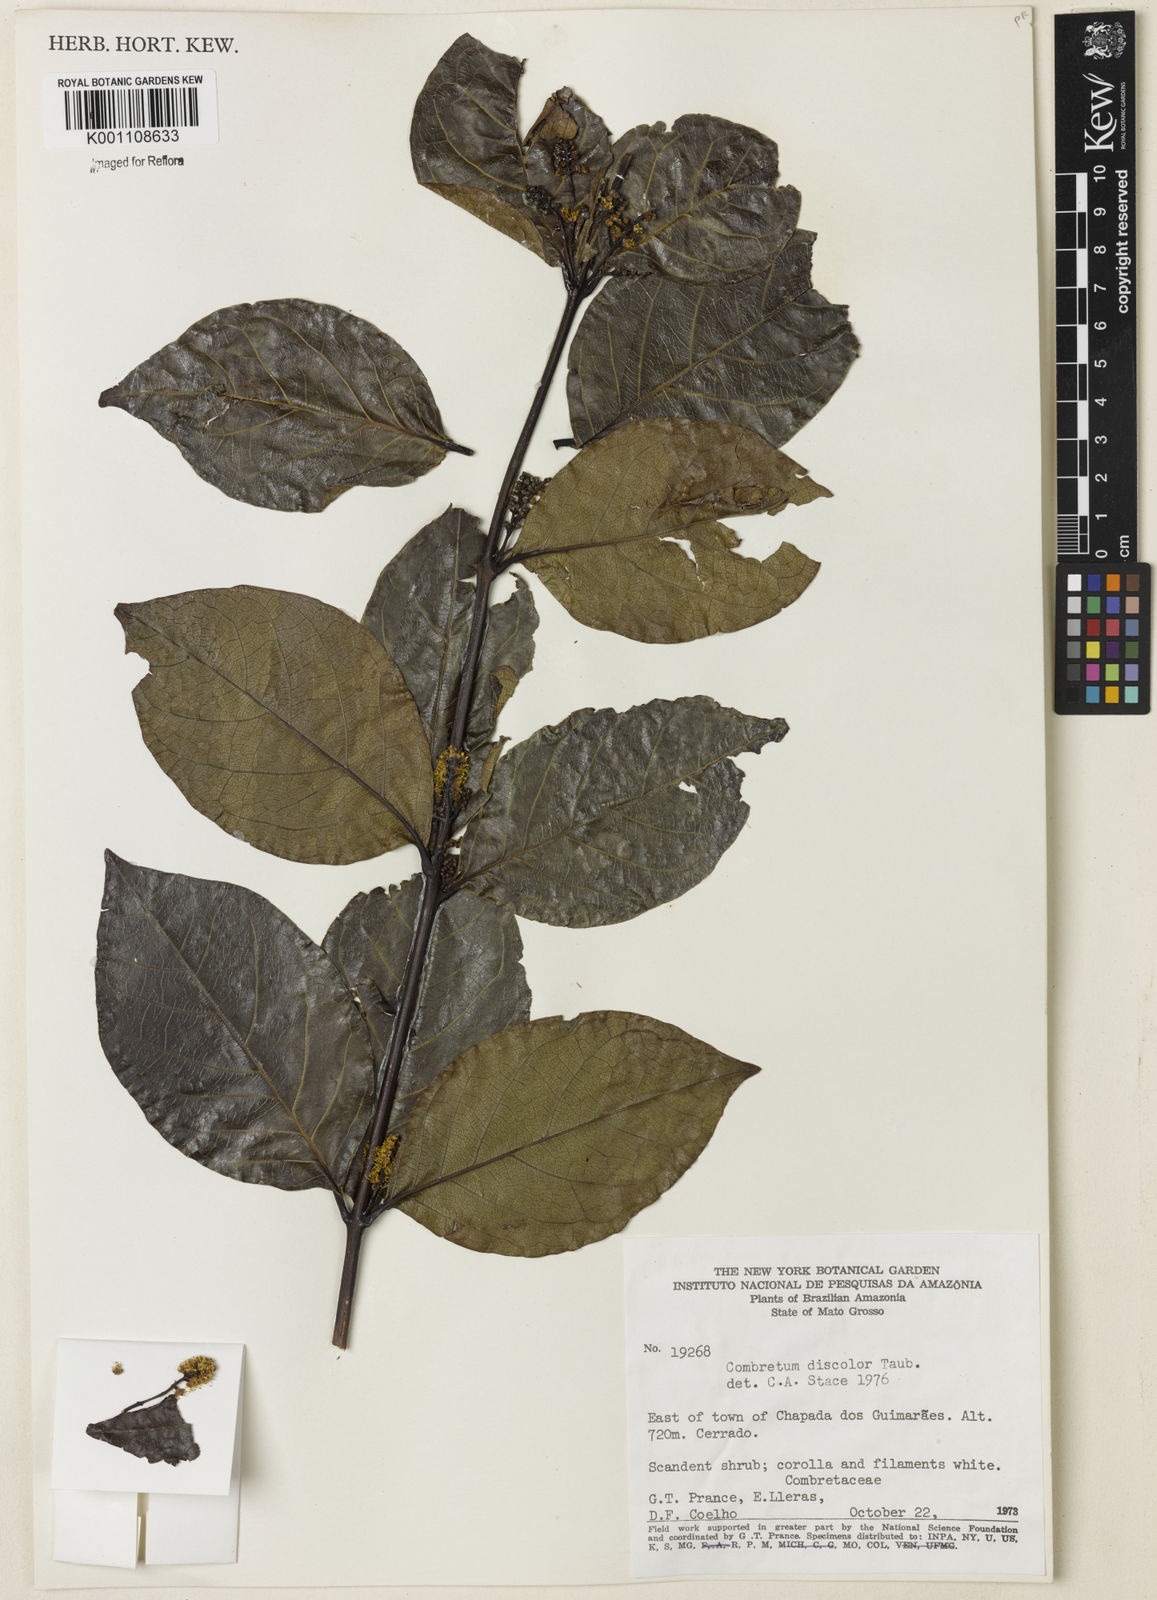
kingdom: Plantae
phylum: Tracheophyta
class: Magnoliopsida
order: Myrtales
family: Combretaceae
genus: Combretum
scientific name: Combretum discolor
